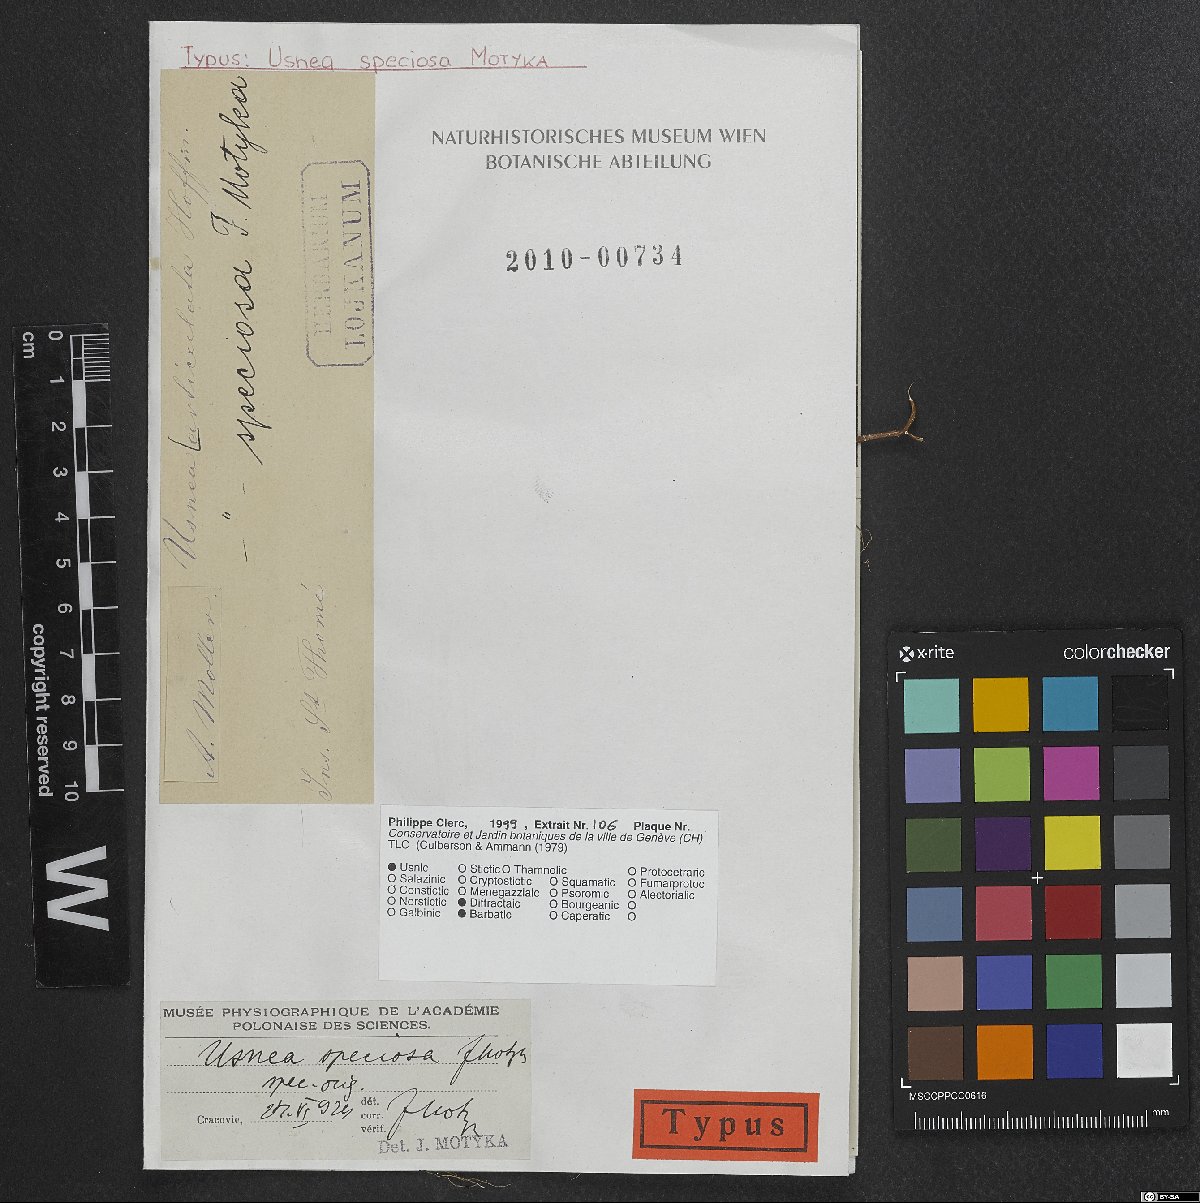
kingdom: Fungi
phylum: Ascomycota
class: Lecanoromycetes
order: Lecanorales
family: Parmeliaceae
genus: Usnea
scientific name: Usnea speciosa
